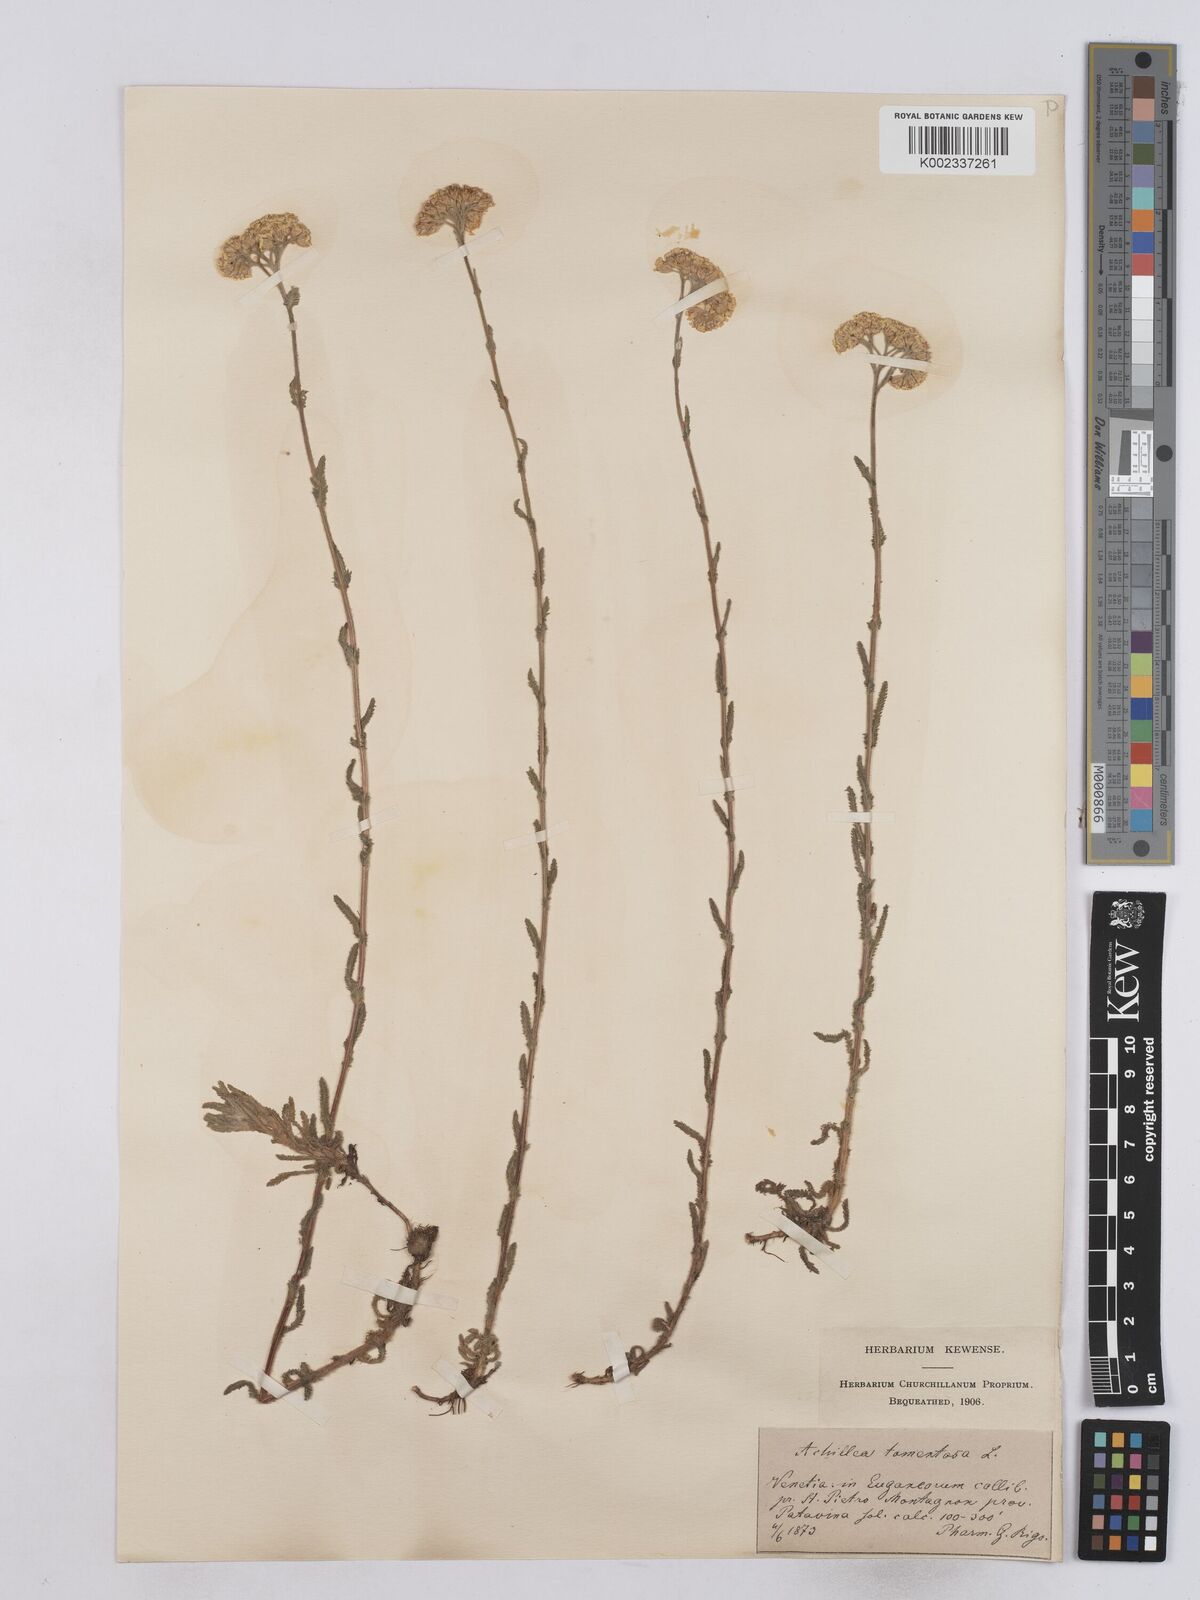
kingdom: Plantae
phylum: Tracheophyta
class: Magnoliopsida
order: Asterales
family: Asteraceae
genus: Achillea
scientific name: Achillea tomentosa
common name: Yellow milfoil
